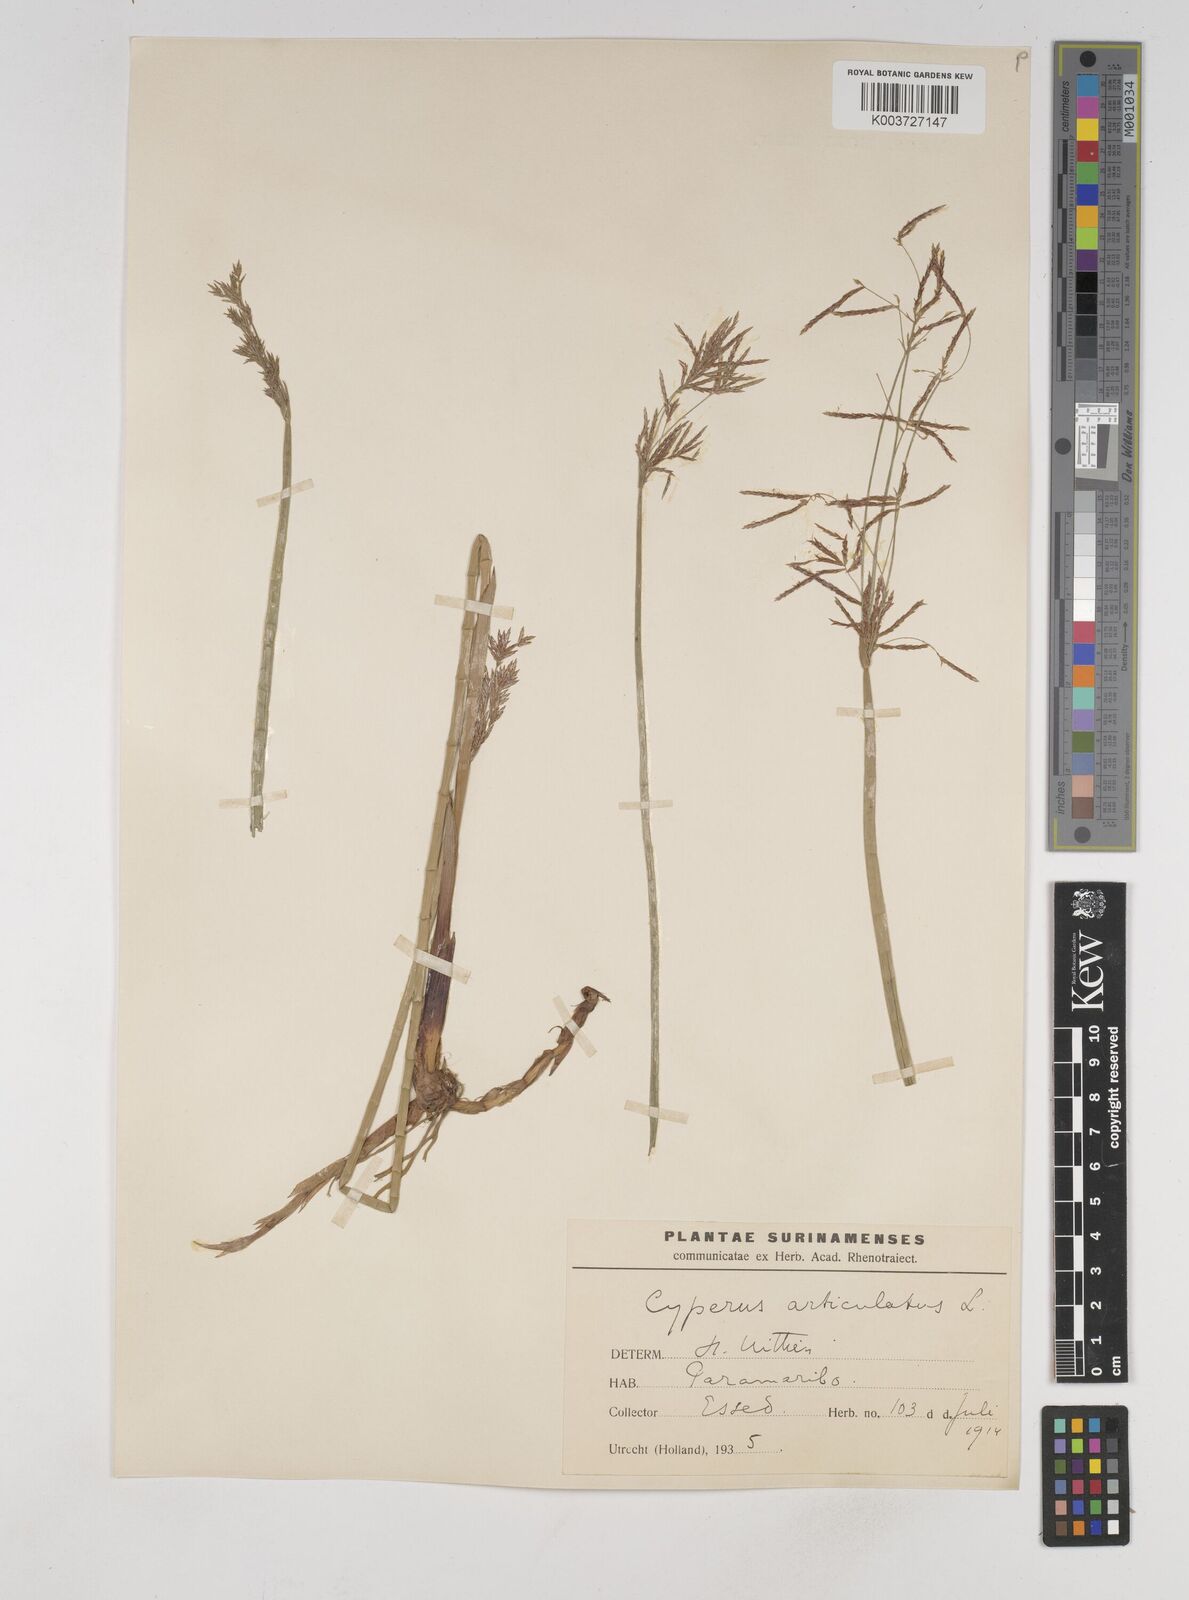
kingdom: Plantae
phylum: Tracheophyta
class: Liliopsida
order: Poales
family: Cyperaceae
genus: Cyperus
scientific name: Cyperus articulatus
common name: Jointed flatsedge
